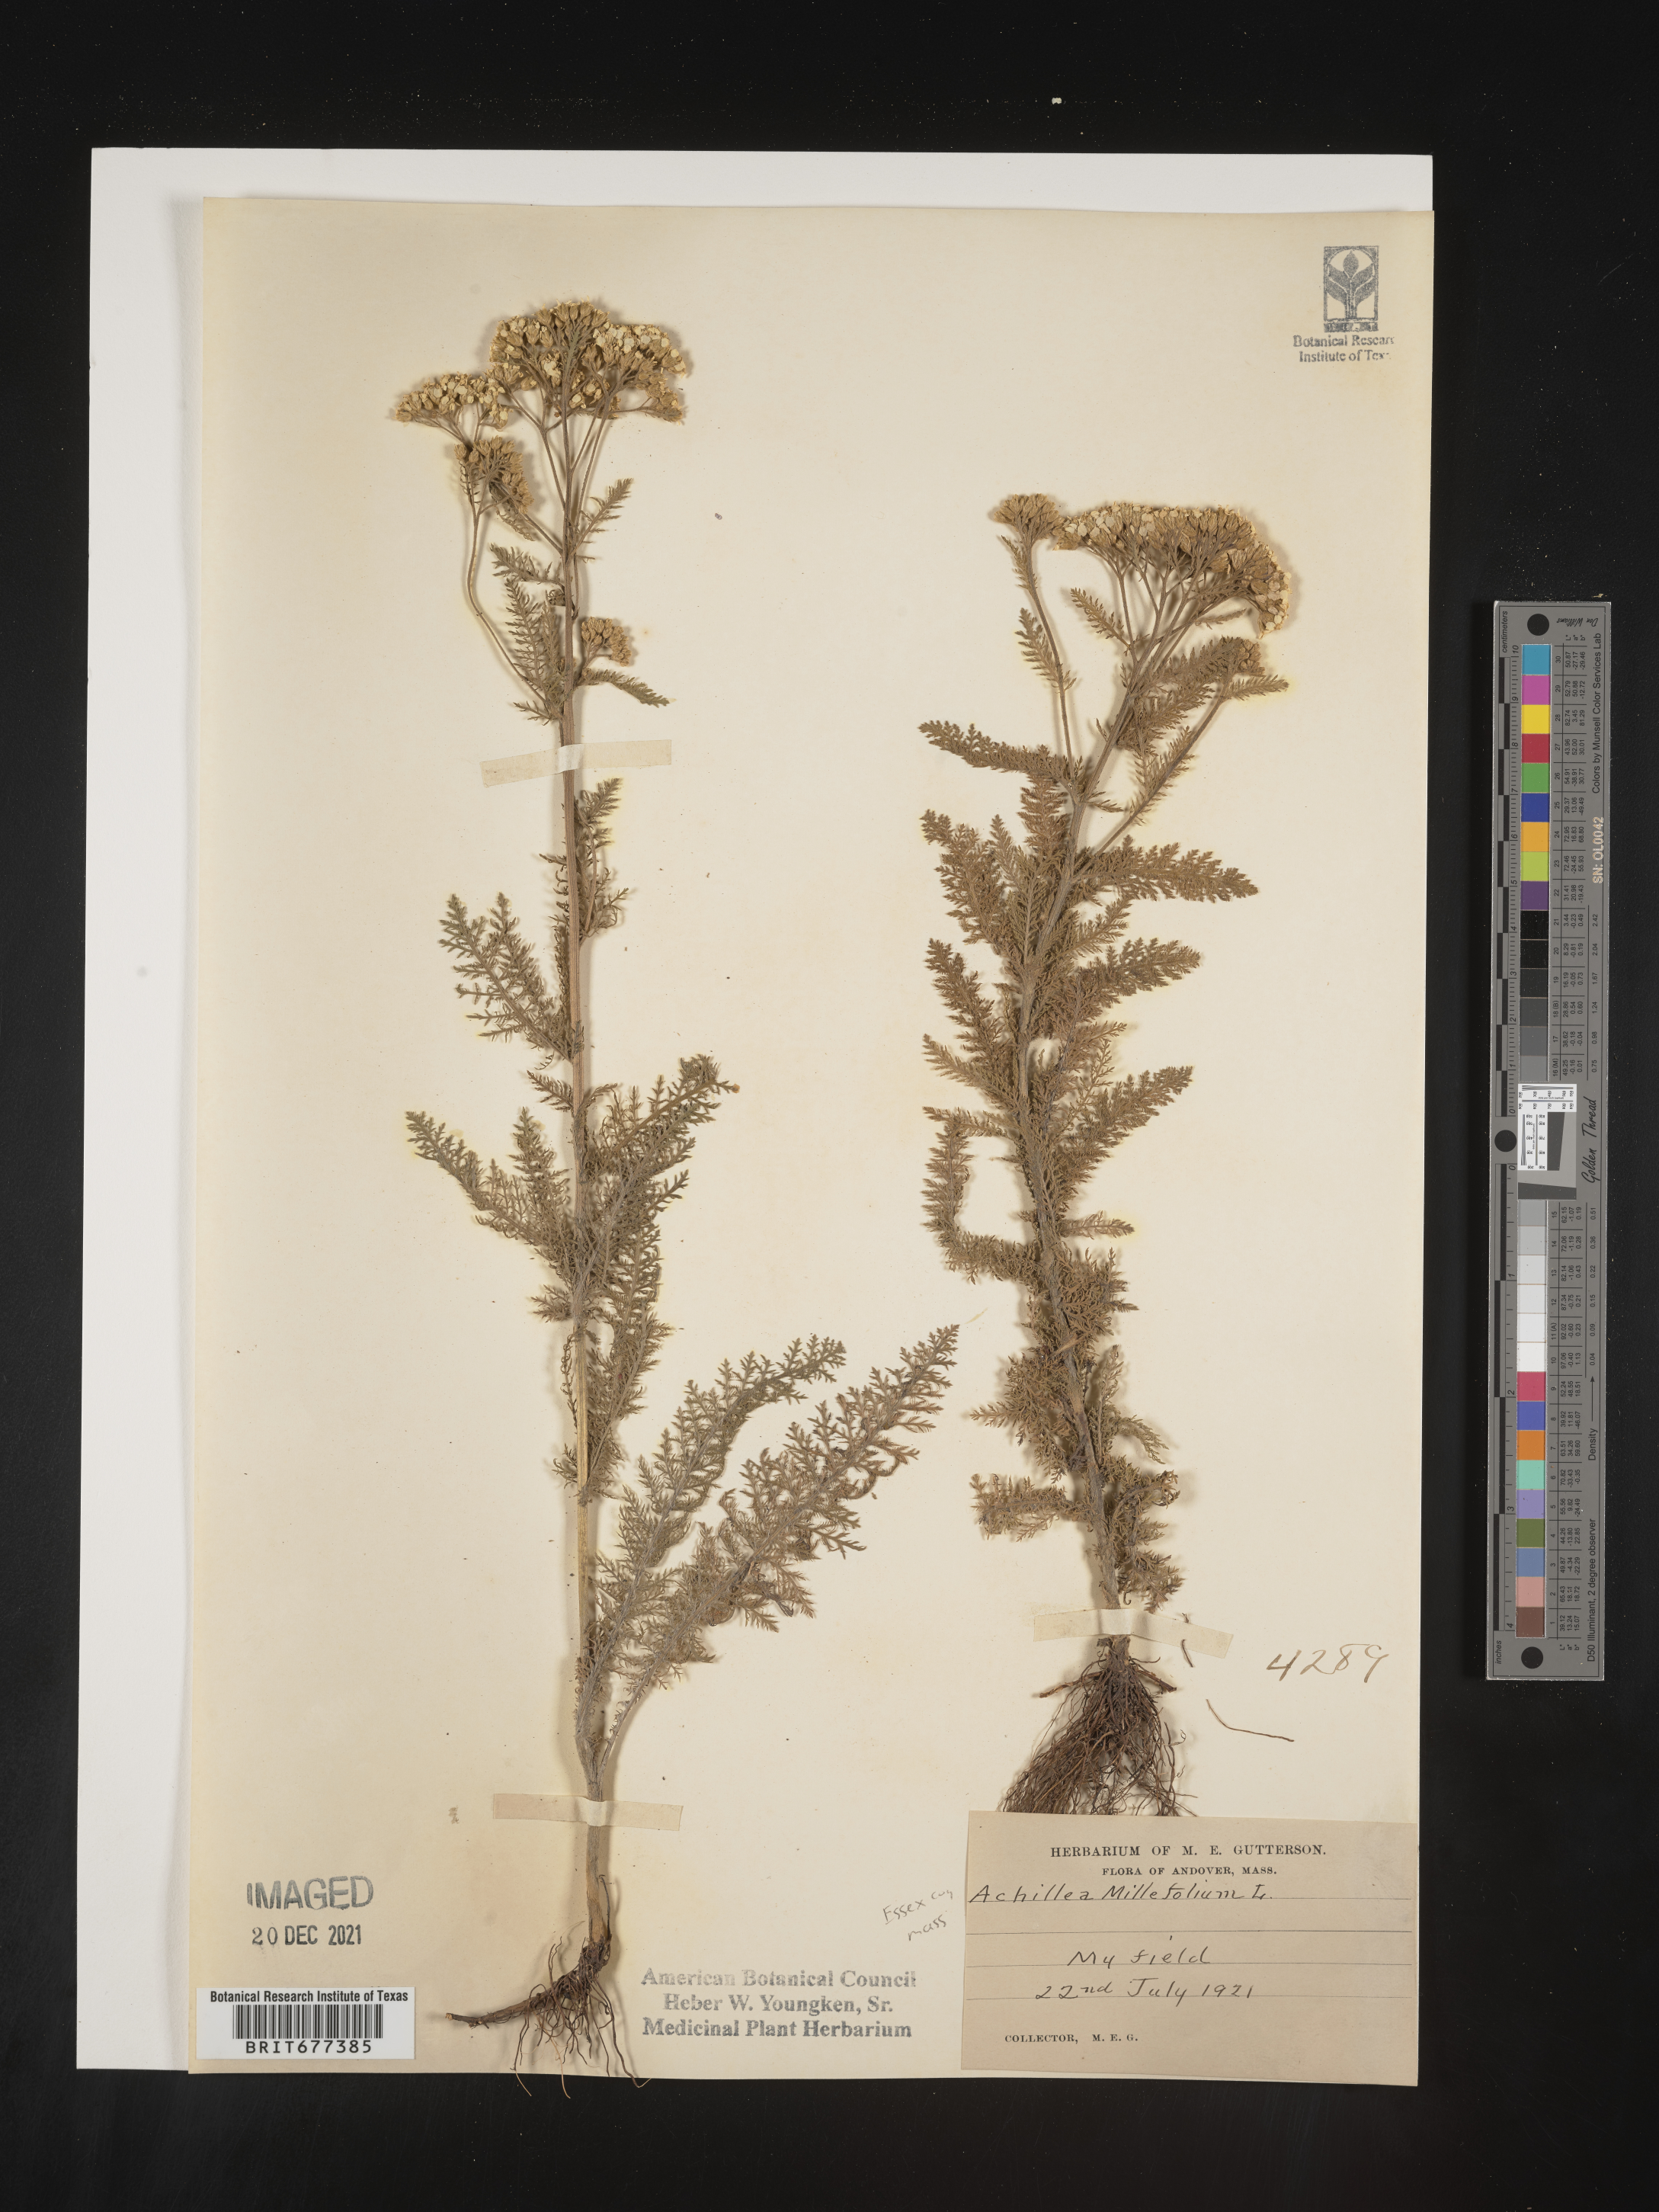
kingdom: Plantae
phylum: Tracheophyta
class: Magnoliopsida
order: Asterales
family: Asteraceae
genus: Achillea
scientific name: Achillea millefolium
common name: Yarrow
